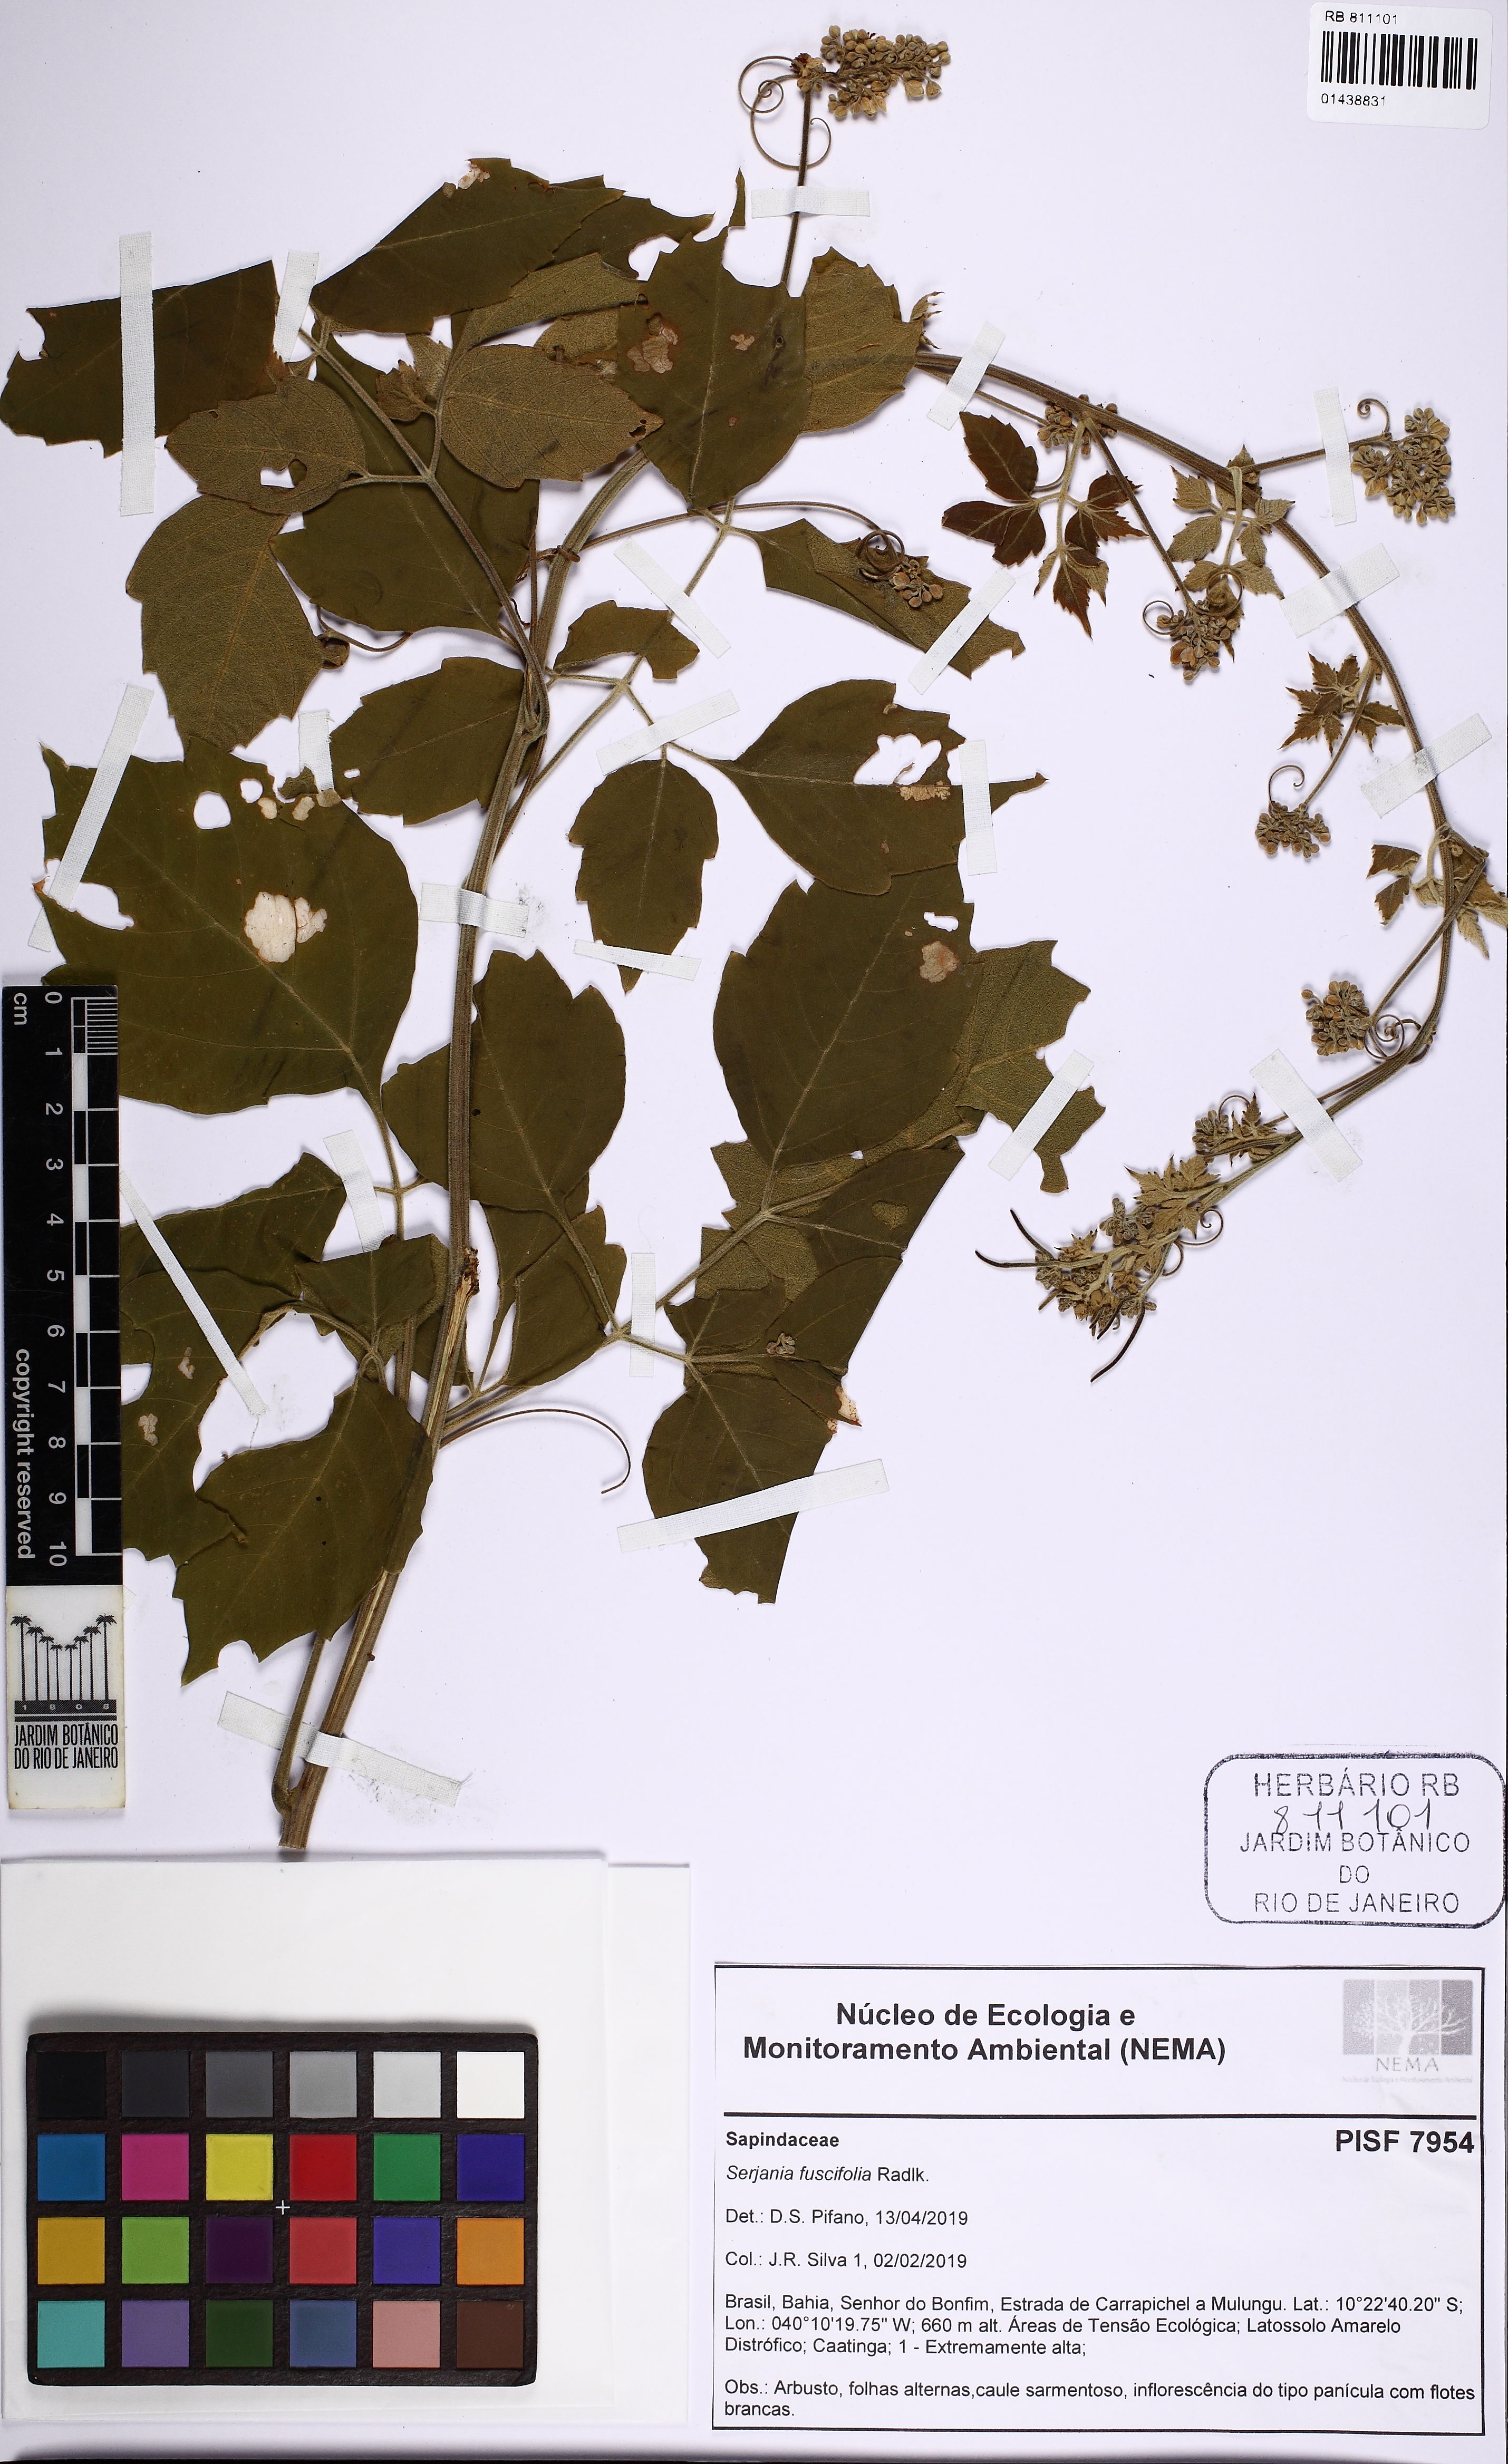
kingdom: Plantae
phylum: Tracheophyta
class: Magnoliopsida
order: Sapindales
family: Sapindaceae
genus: Serjania
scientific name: Serjania fuscifolia
